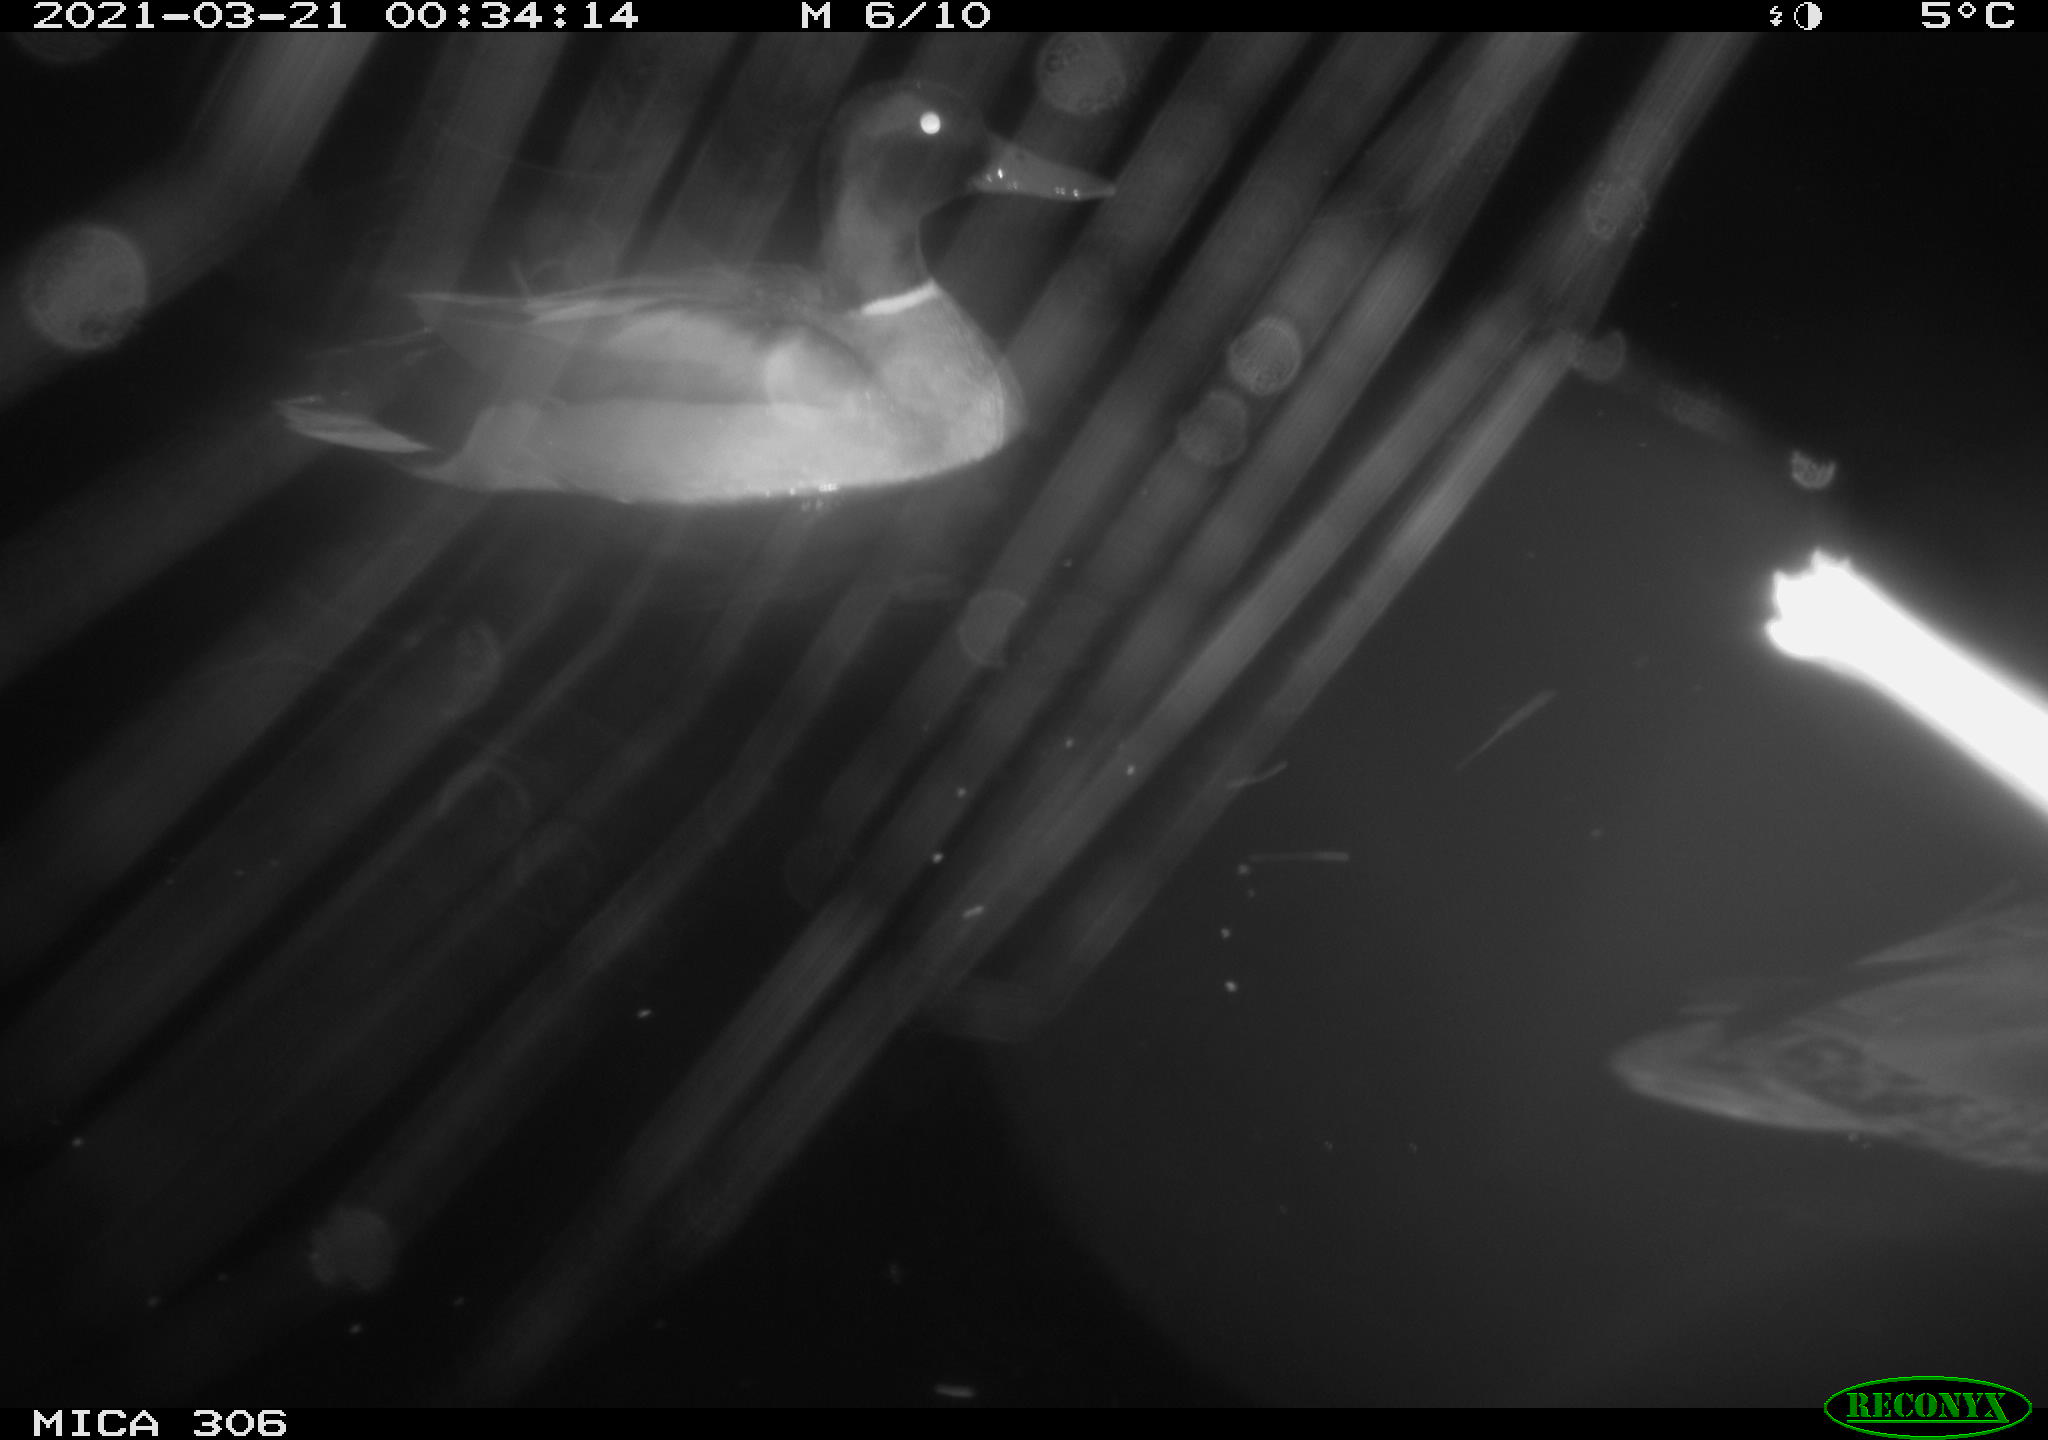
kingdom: Animalia
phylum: Chordata
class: Aves
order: Anseriformes
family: Anatidae
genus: Anas
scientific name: Anas platyrhynchos
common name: Mallard
